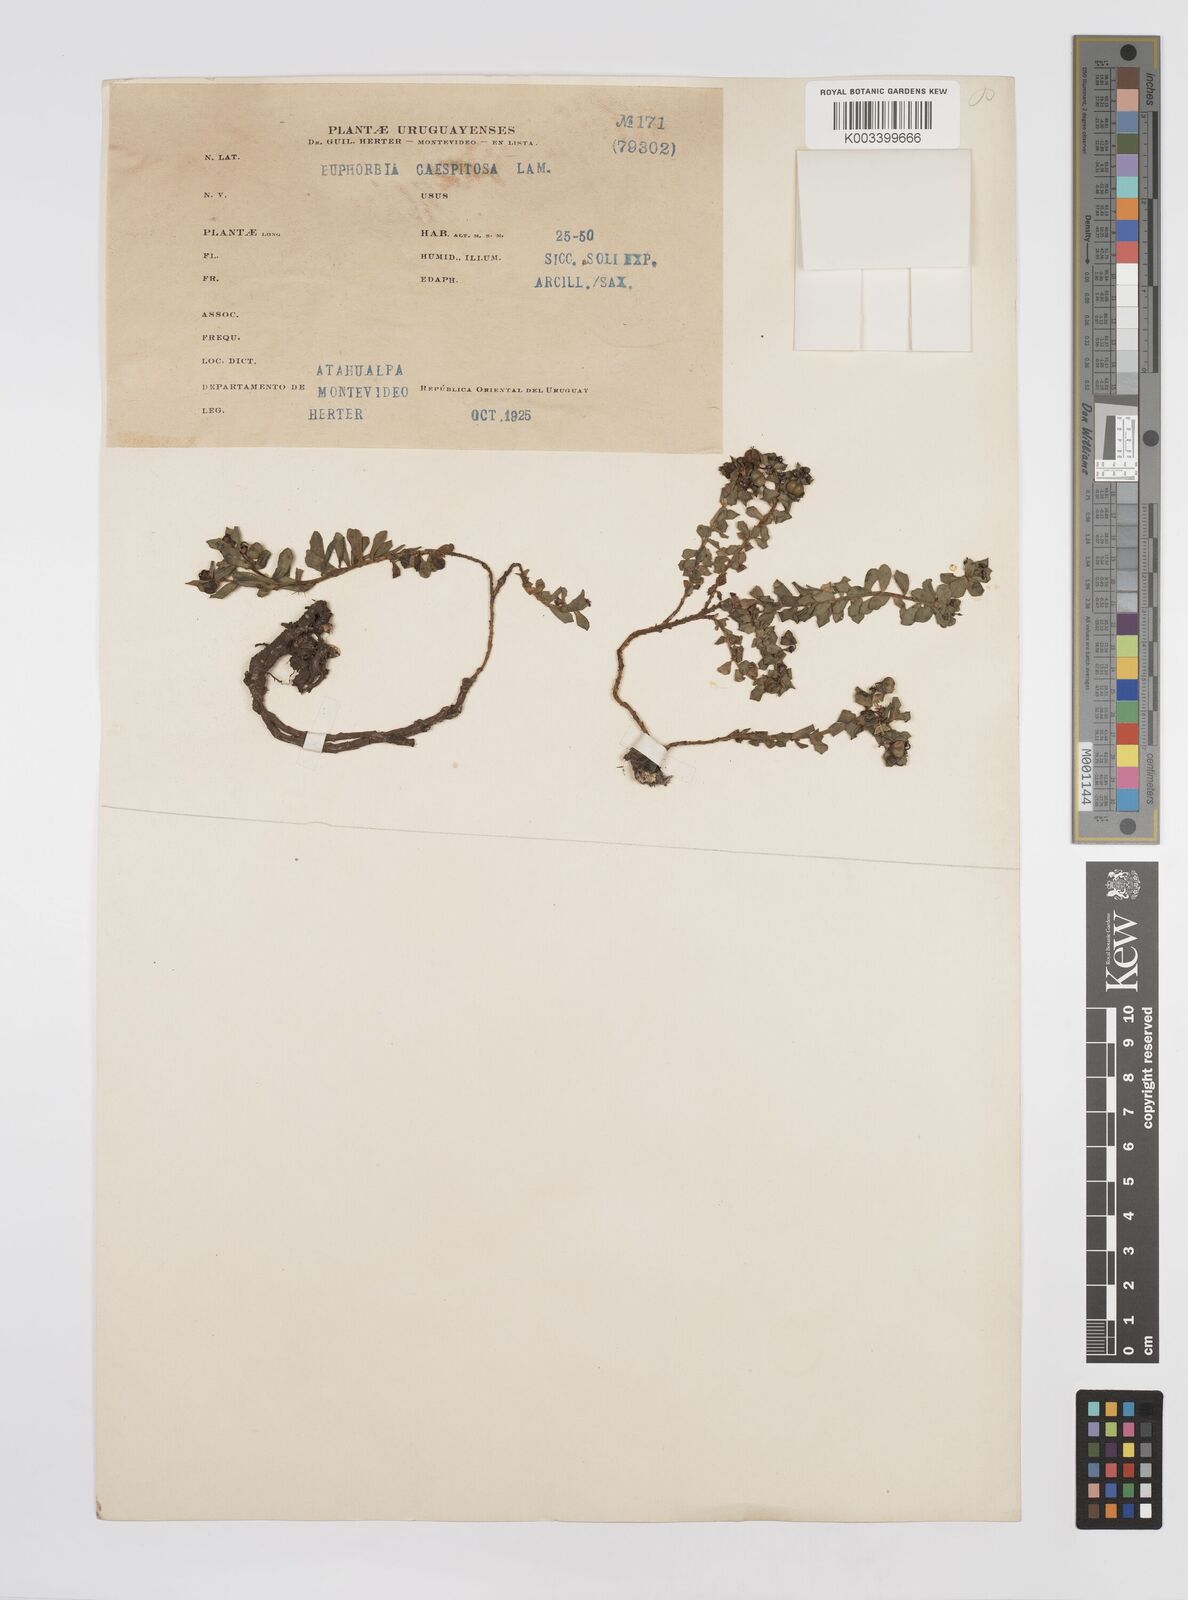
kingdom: Plantae
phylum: Tracheophyta
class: Magnoliopsida
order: Malpighiales
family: Euphorbiaceae
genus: Euphorbia
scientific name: Euphorbia segetalis
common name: Corn spurge
